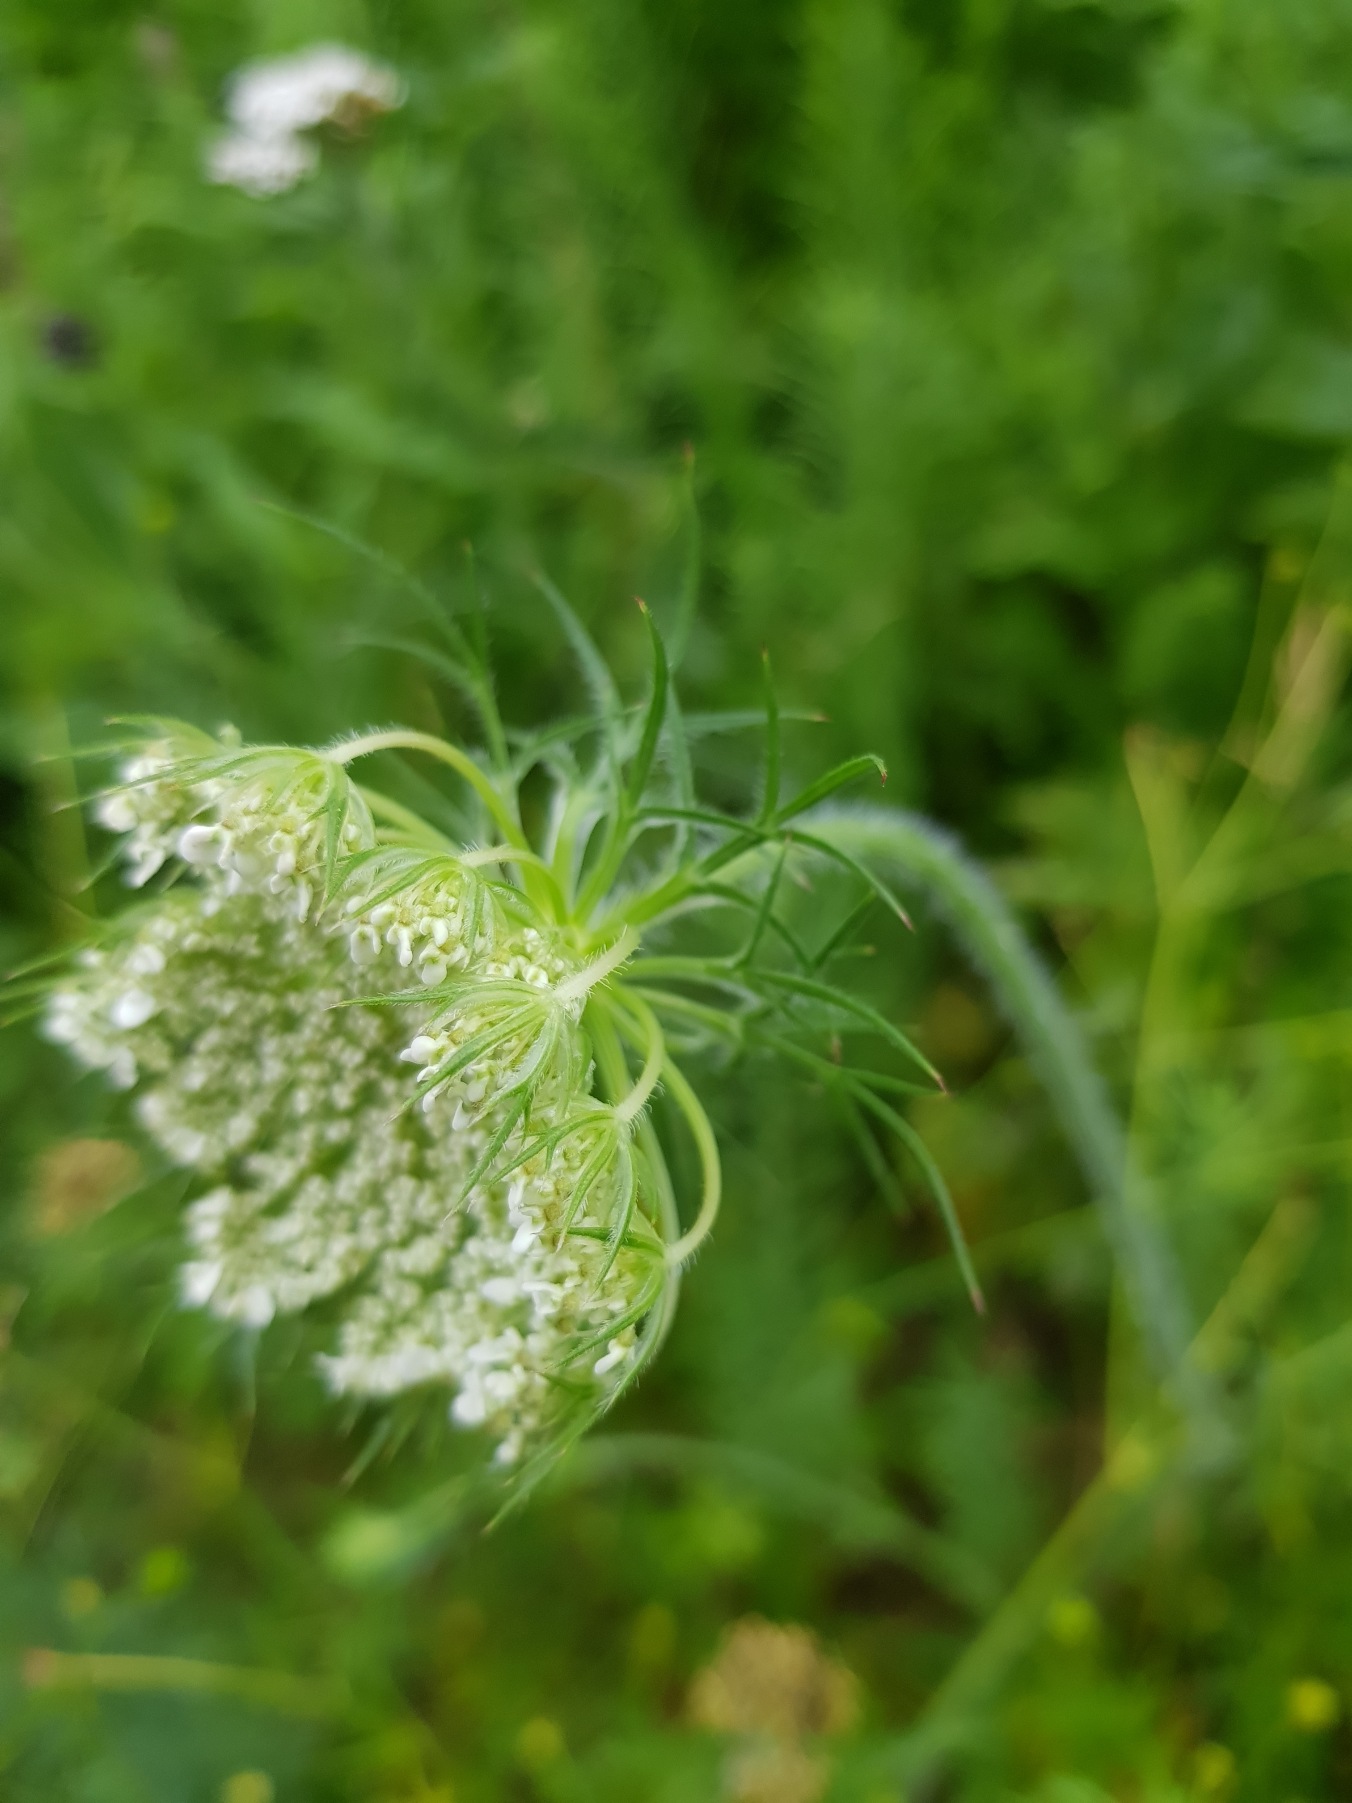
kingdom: Plantae
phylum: Tracheophyta
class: Magnoliopsida
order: Apiales
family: Apiaceae
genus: Daucus
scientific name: Daucus carota
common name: Vild gulerod
